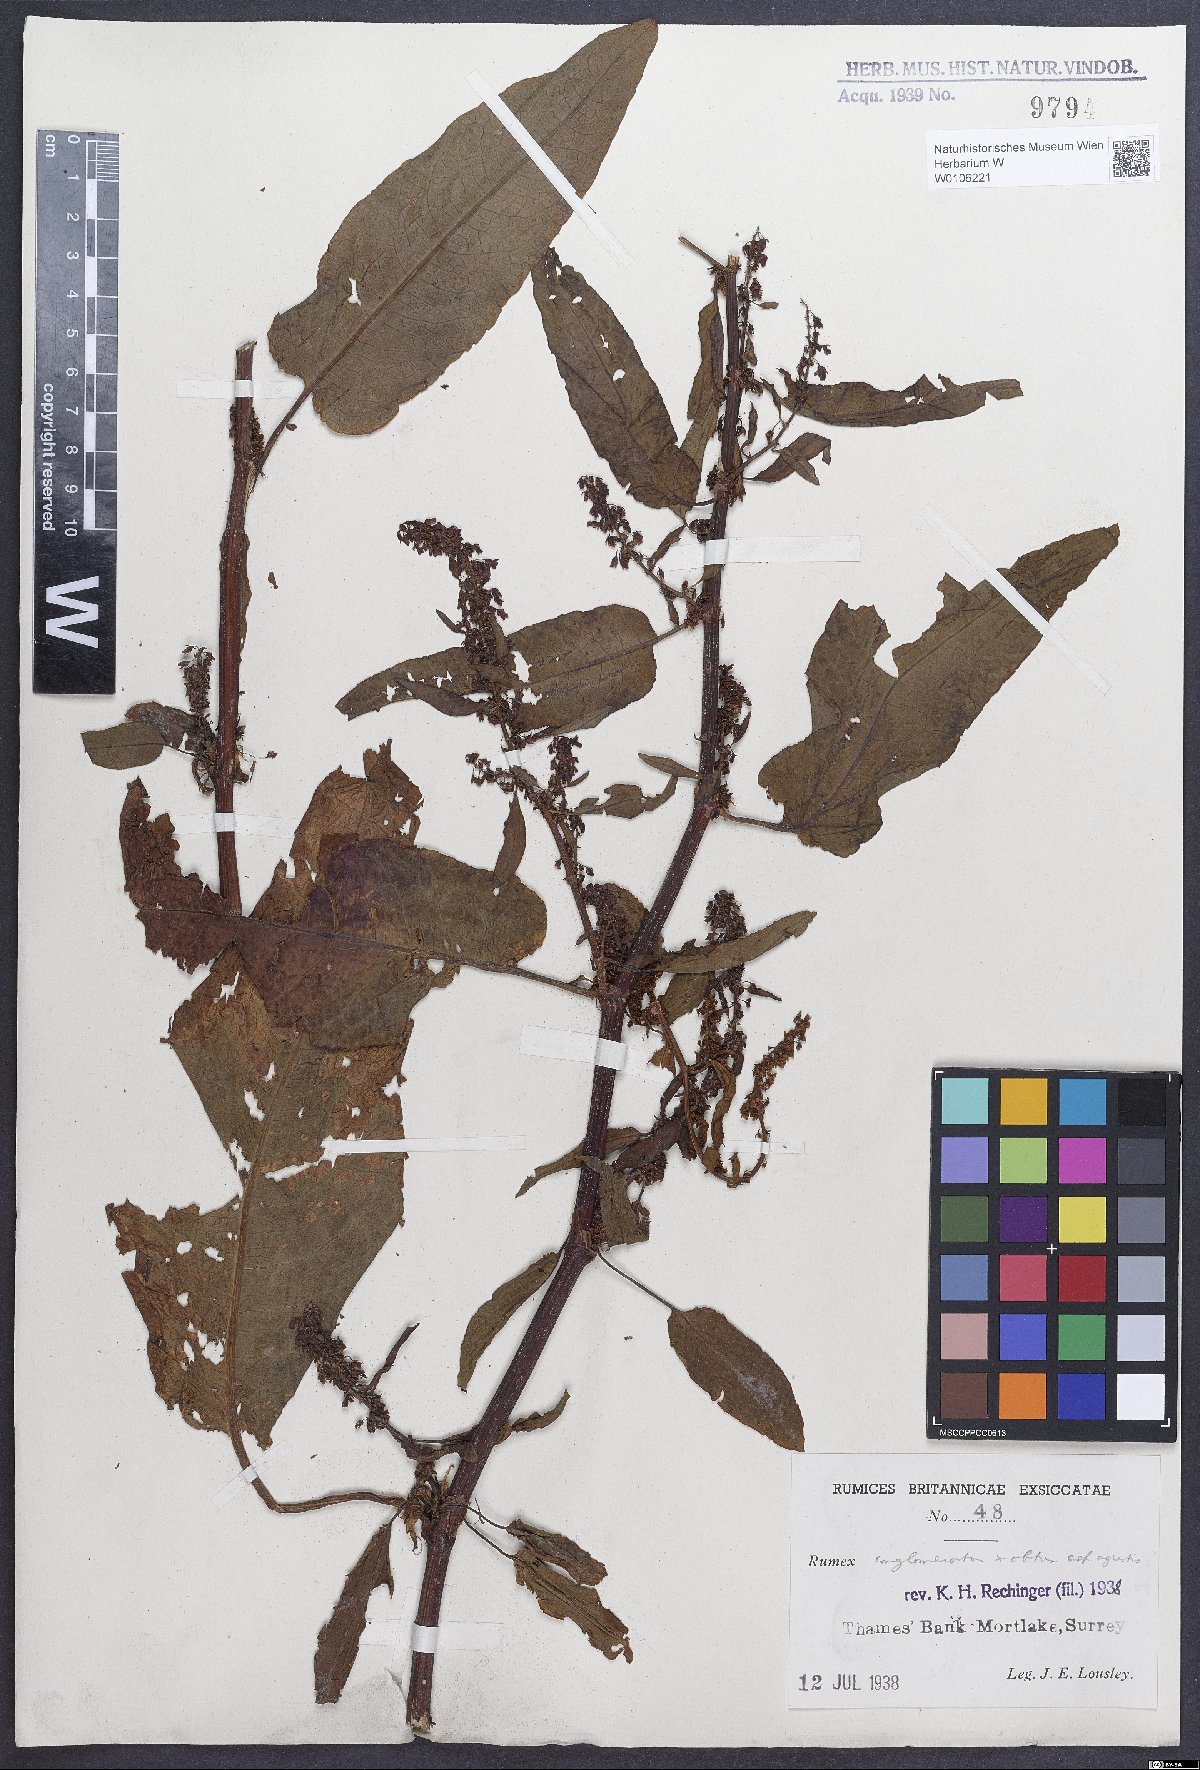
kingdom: Plantae
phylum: Tracheophyta
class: Magnoliopsida
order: Caryophyllales
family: Polygonaceae
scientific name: Polygonaceae
